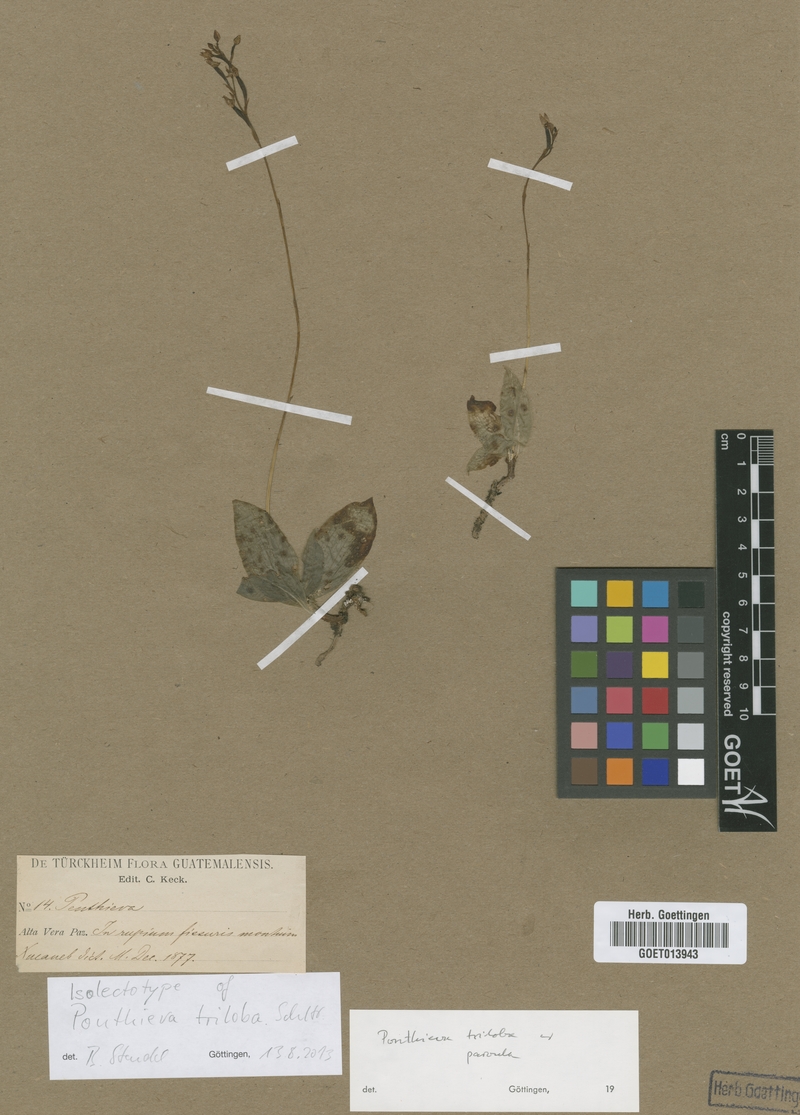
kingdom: Plantae
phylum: Tracheophyta
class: Liliopsida
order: Asparagales
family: Orchidaceae
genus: Ponthieva
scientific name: Ponthieva triloba
